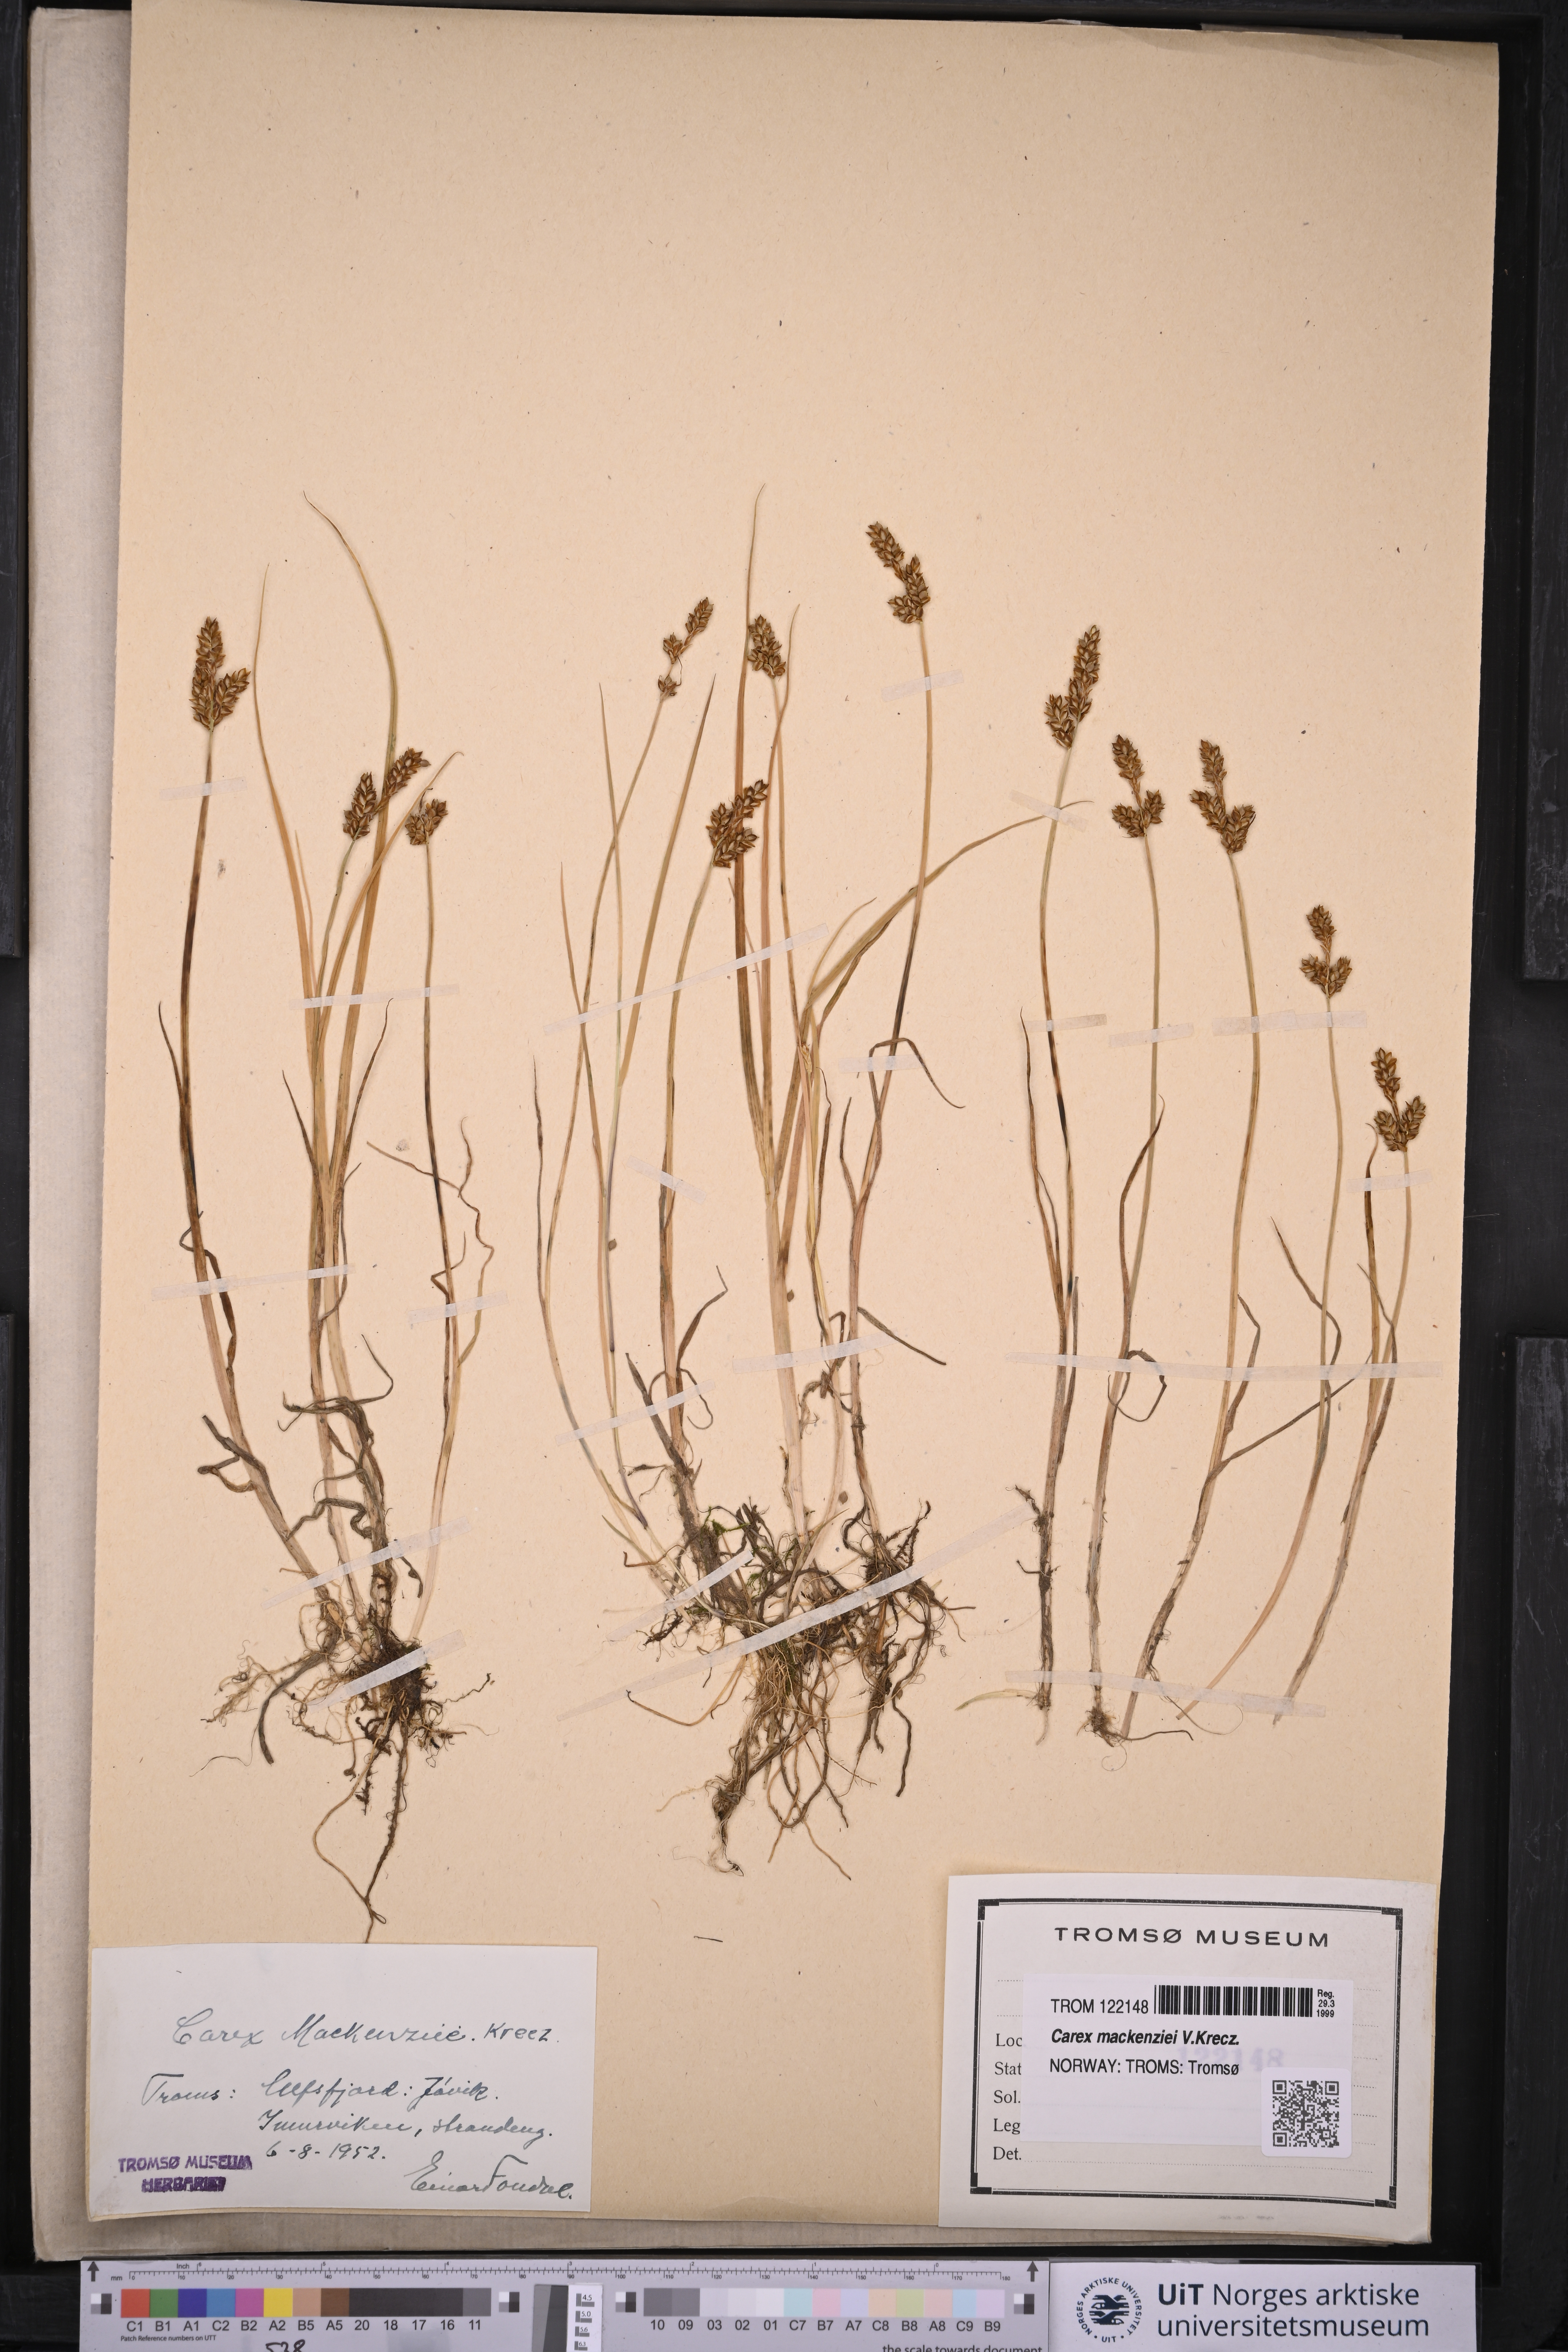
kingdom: Plantae
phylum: Tracheophyta
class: Liliopsida
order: Poales
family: Cyperaceae
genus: Carex
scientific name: Carex mackenziei
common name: Mackenzie's sedge
